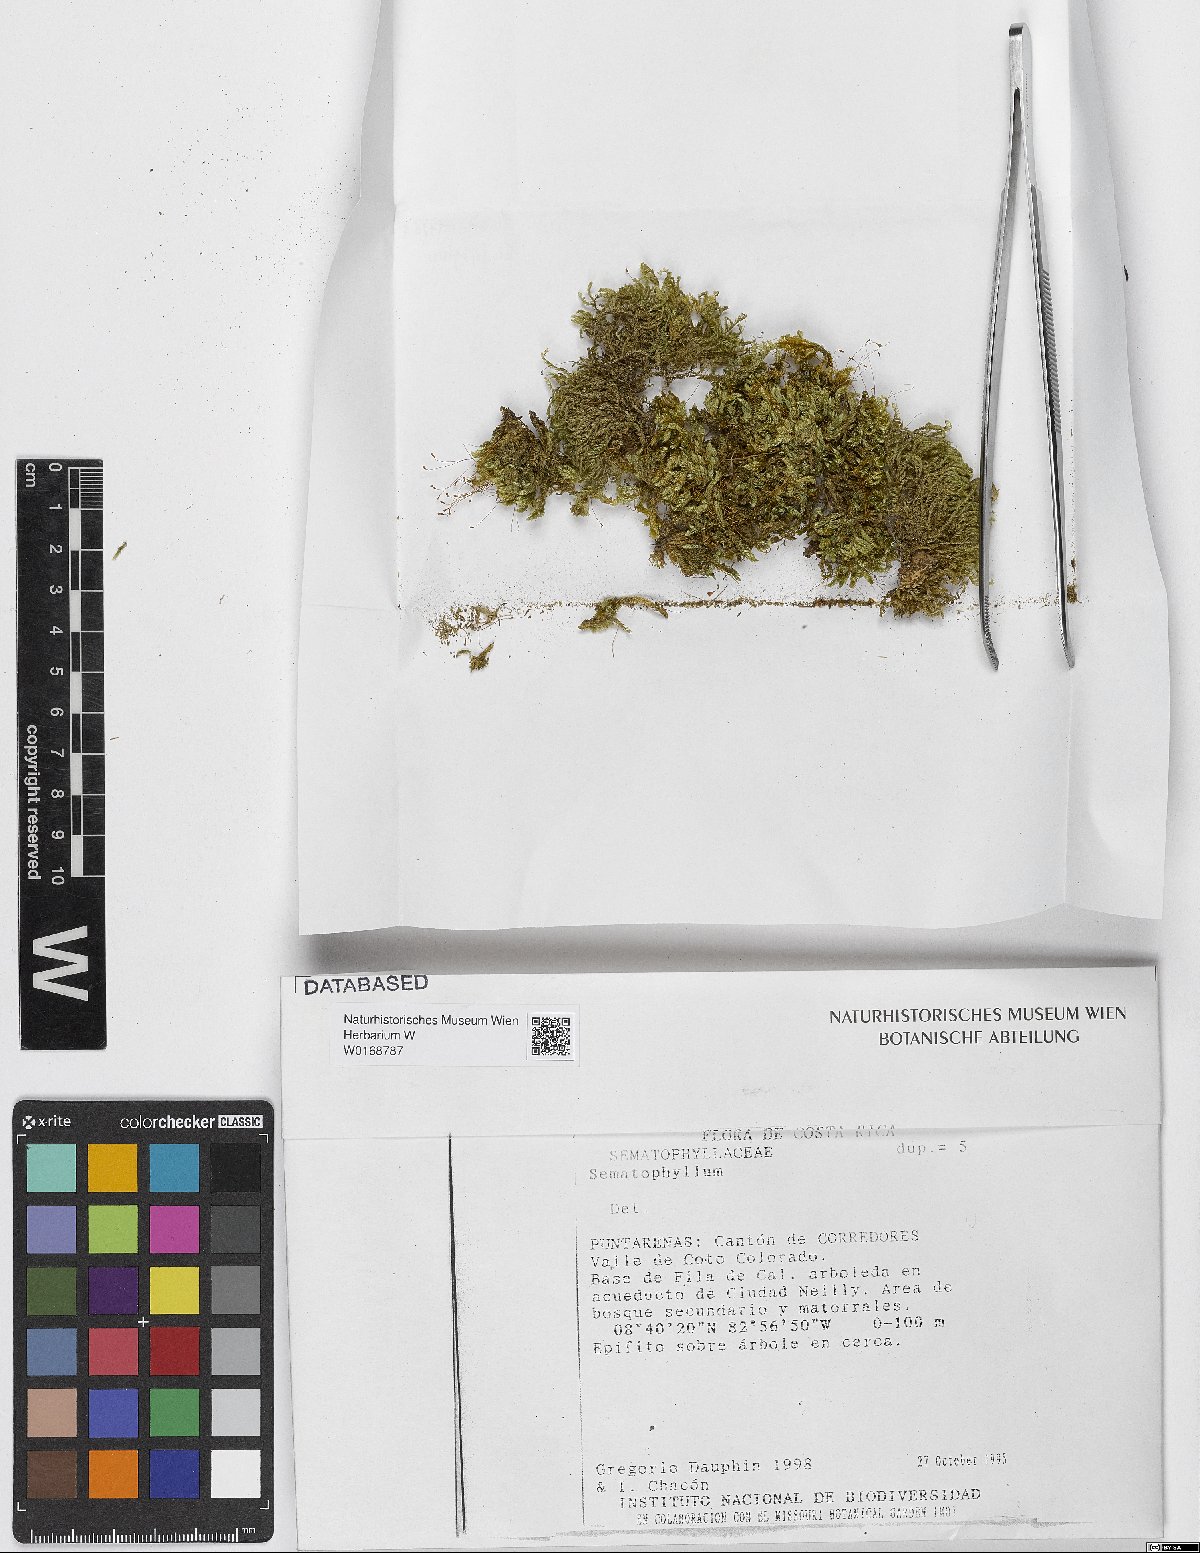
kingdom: Plantae
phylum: Bryophyta
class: Bryopsida
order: Hypnales
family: Sematophyllaceae
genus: Sematophyllum
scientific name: Sematophyllum
